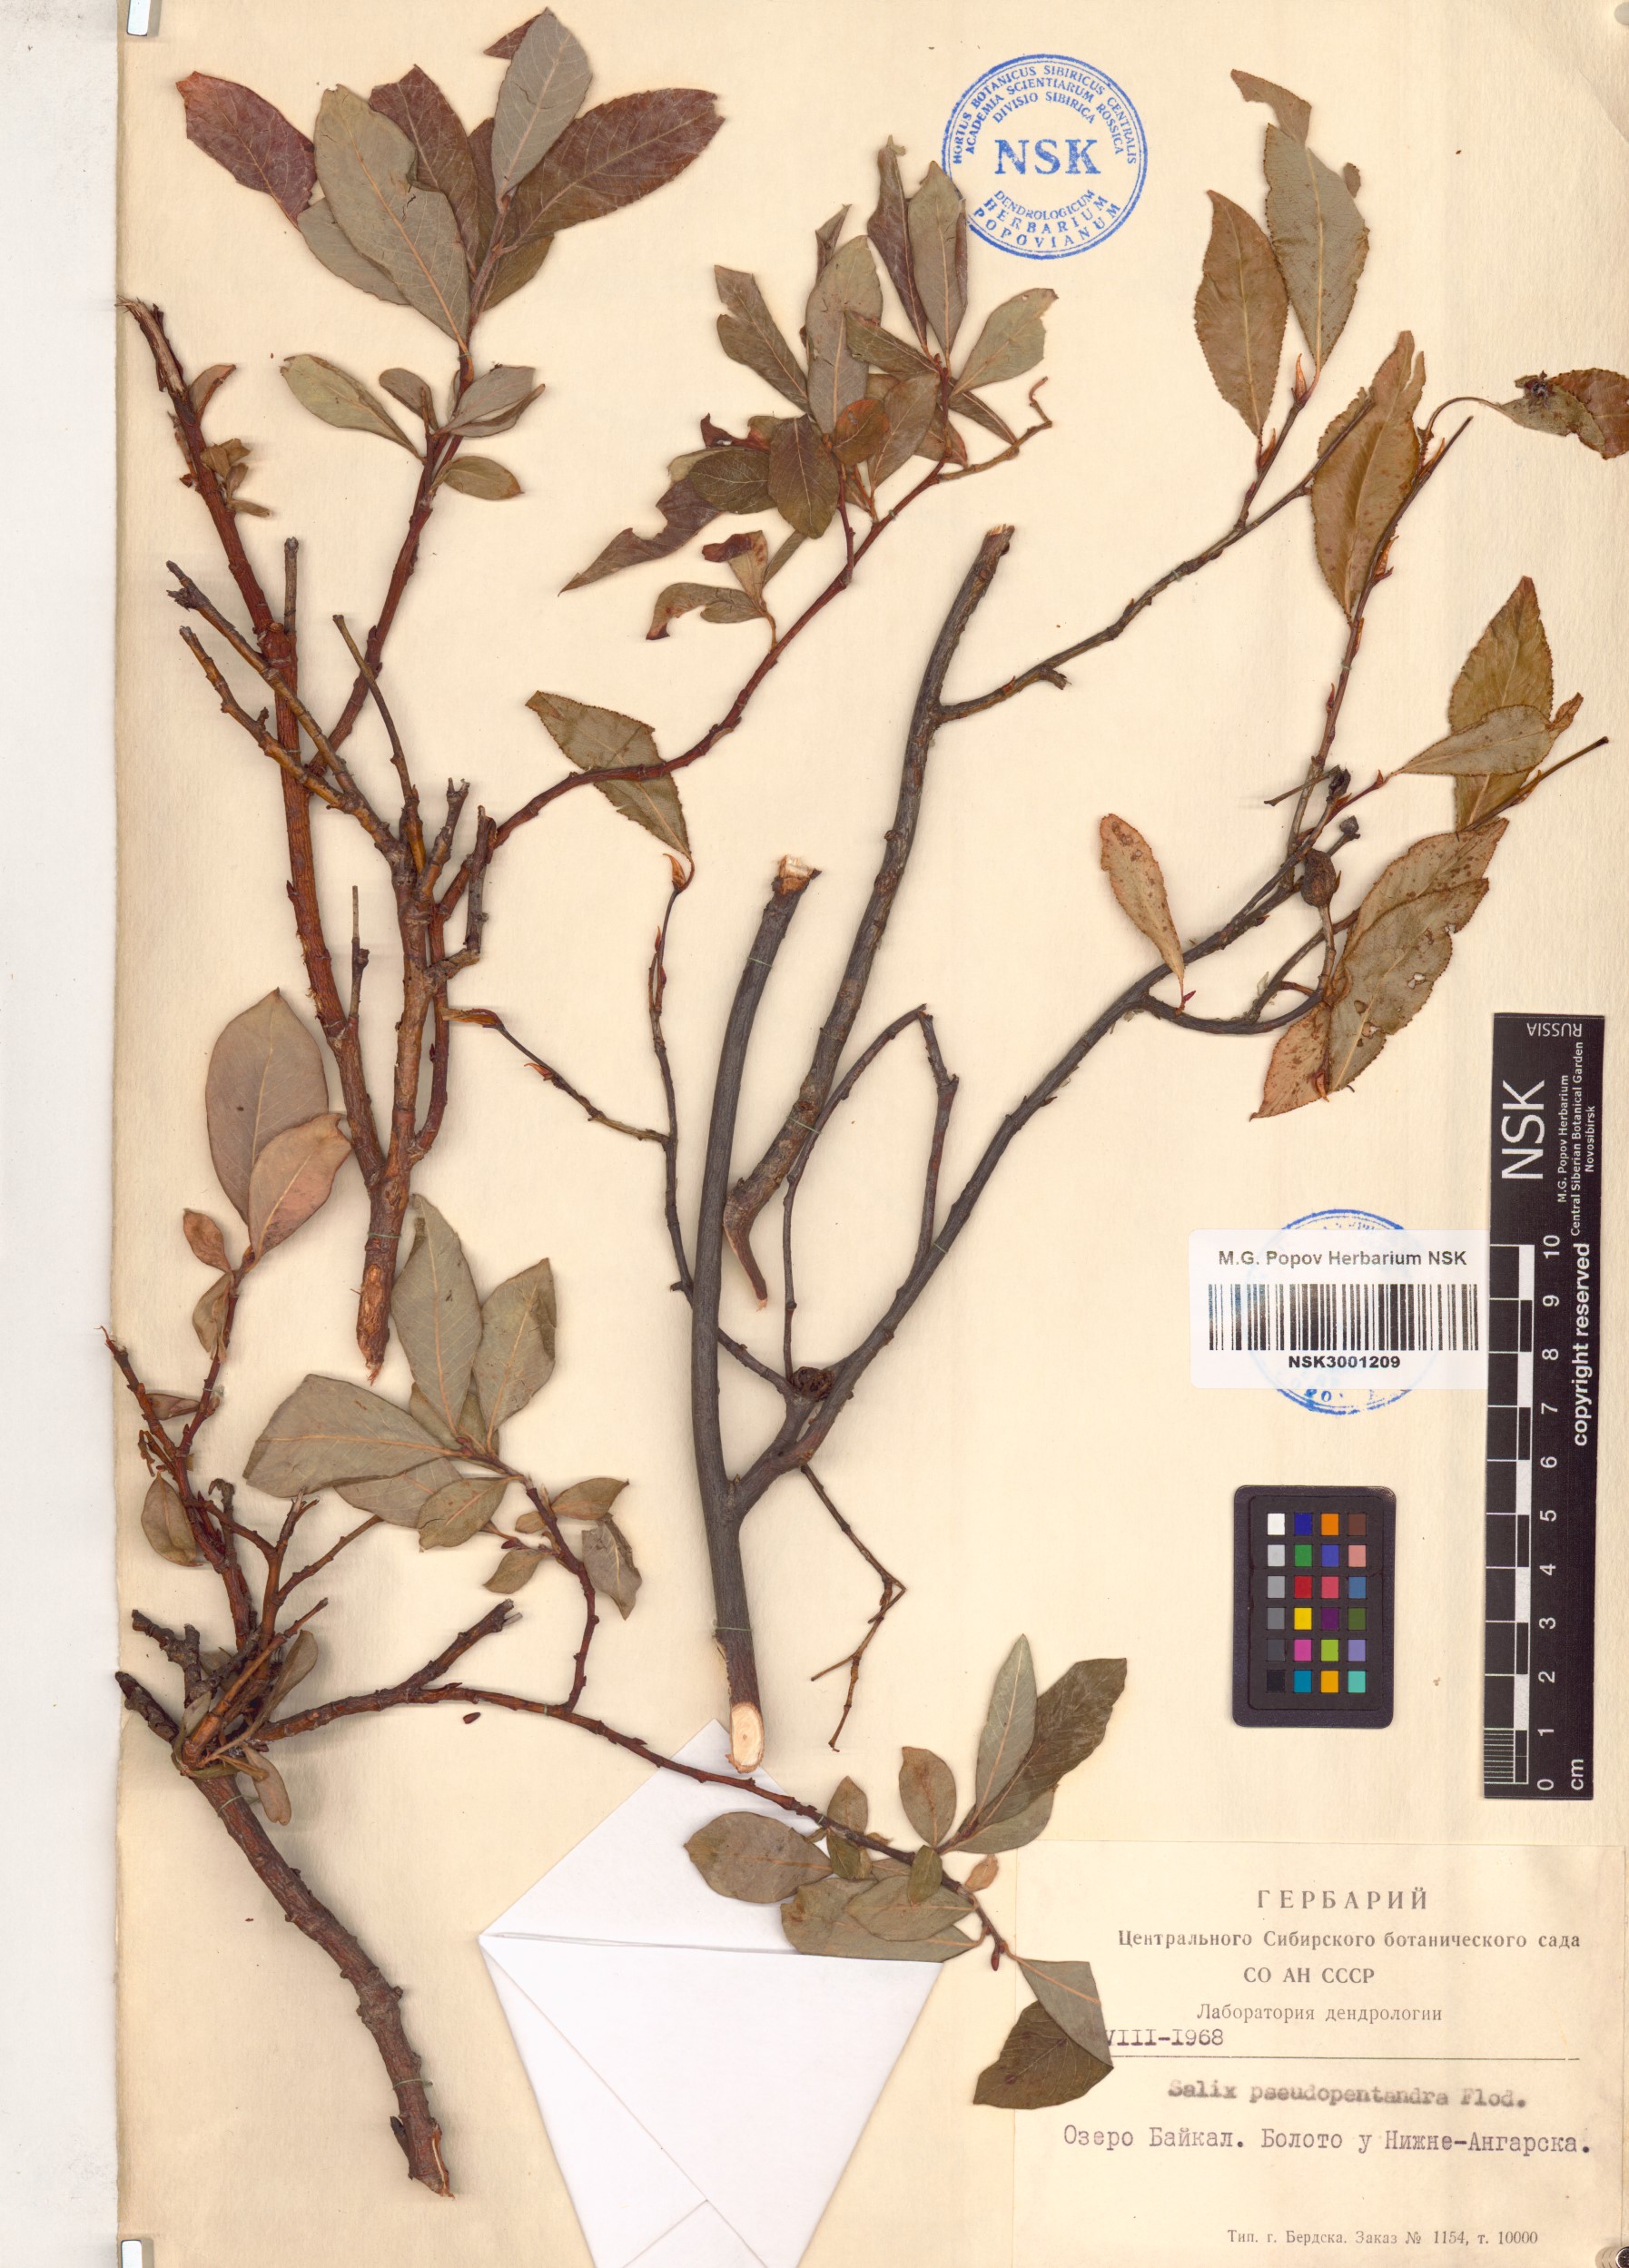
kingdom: Plantae
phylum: Tracheophyta
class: Magnoliopsida
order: Malpighiales
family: Salicaceae
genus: Salix
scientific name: Salix pseudopentandra
